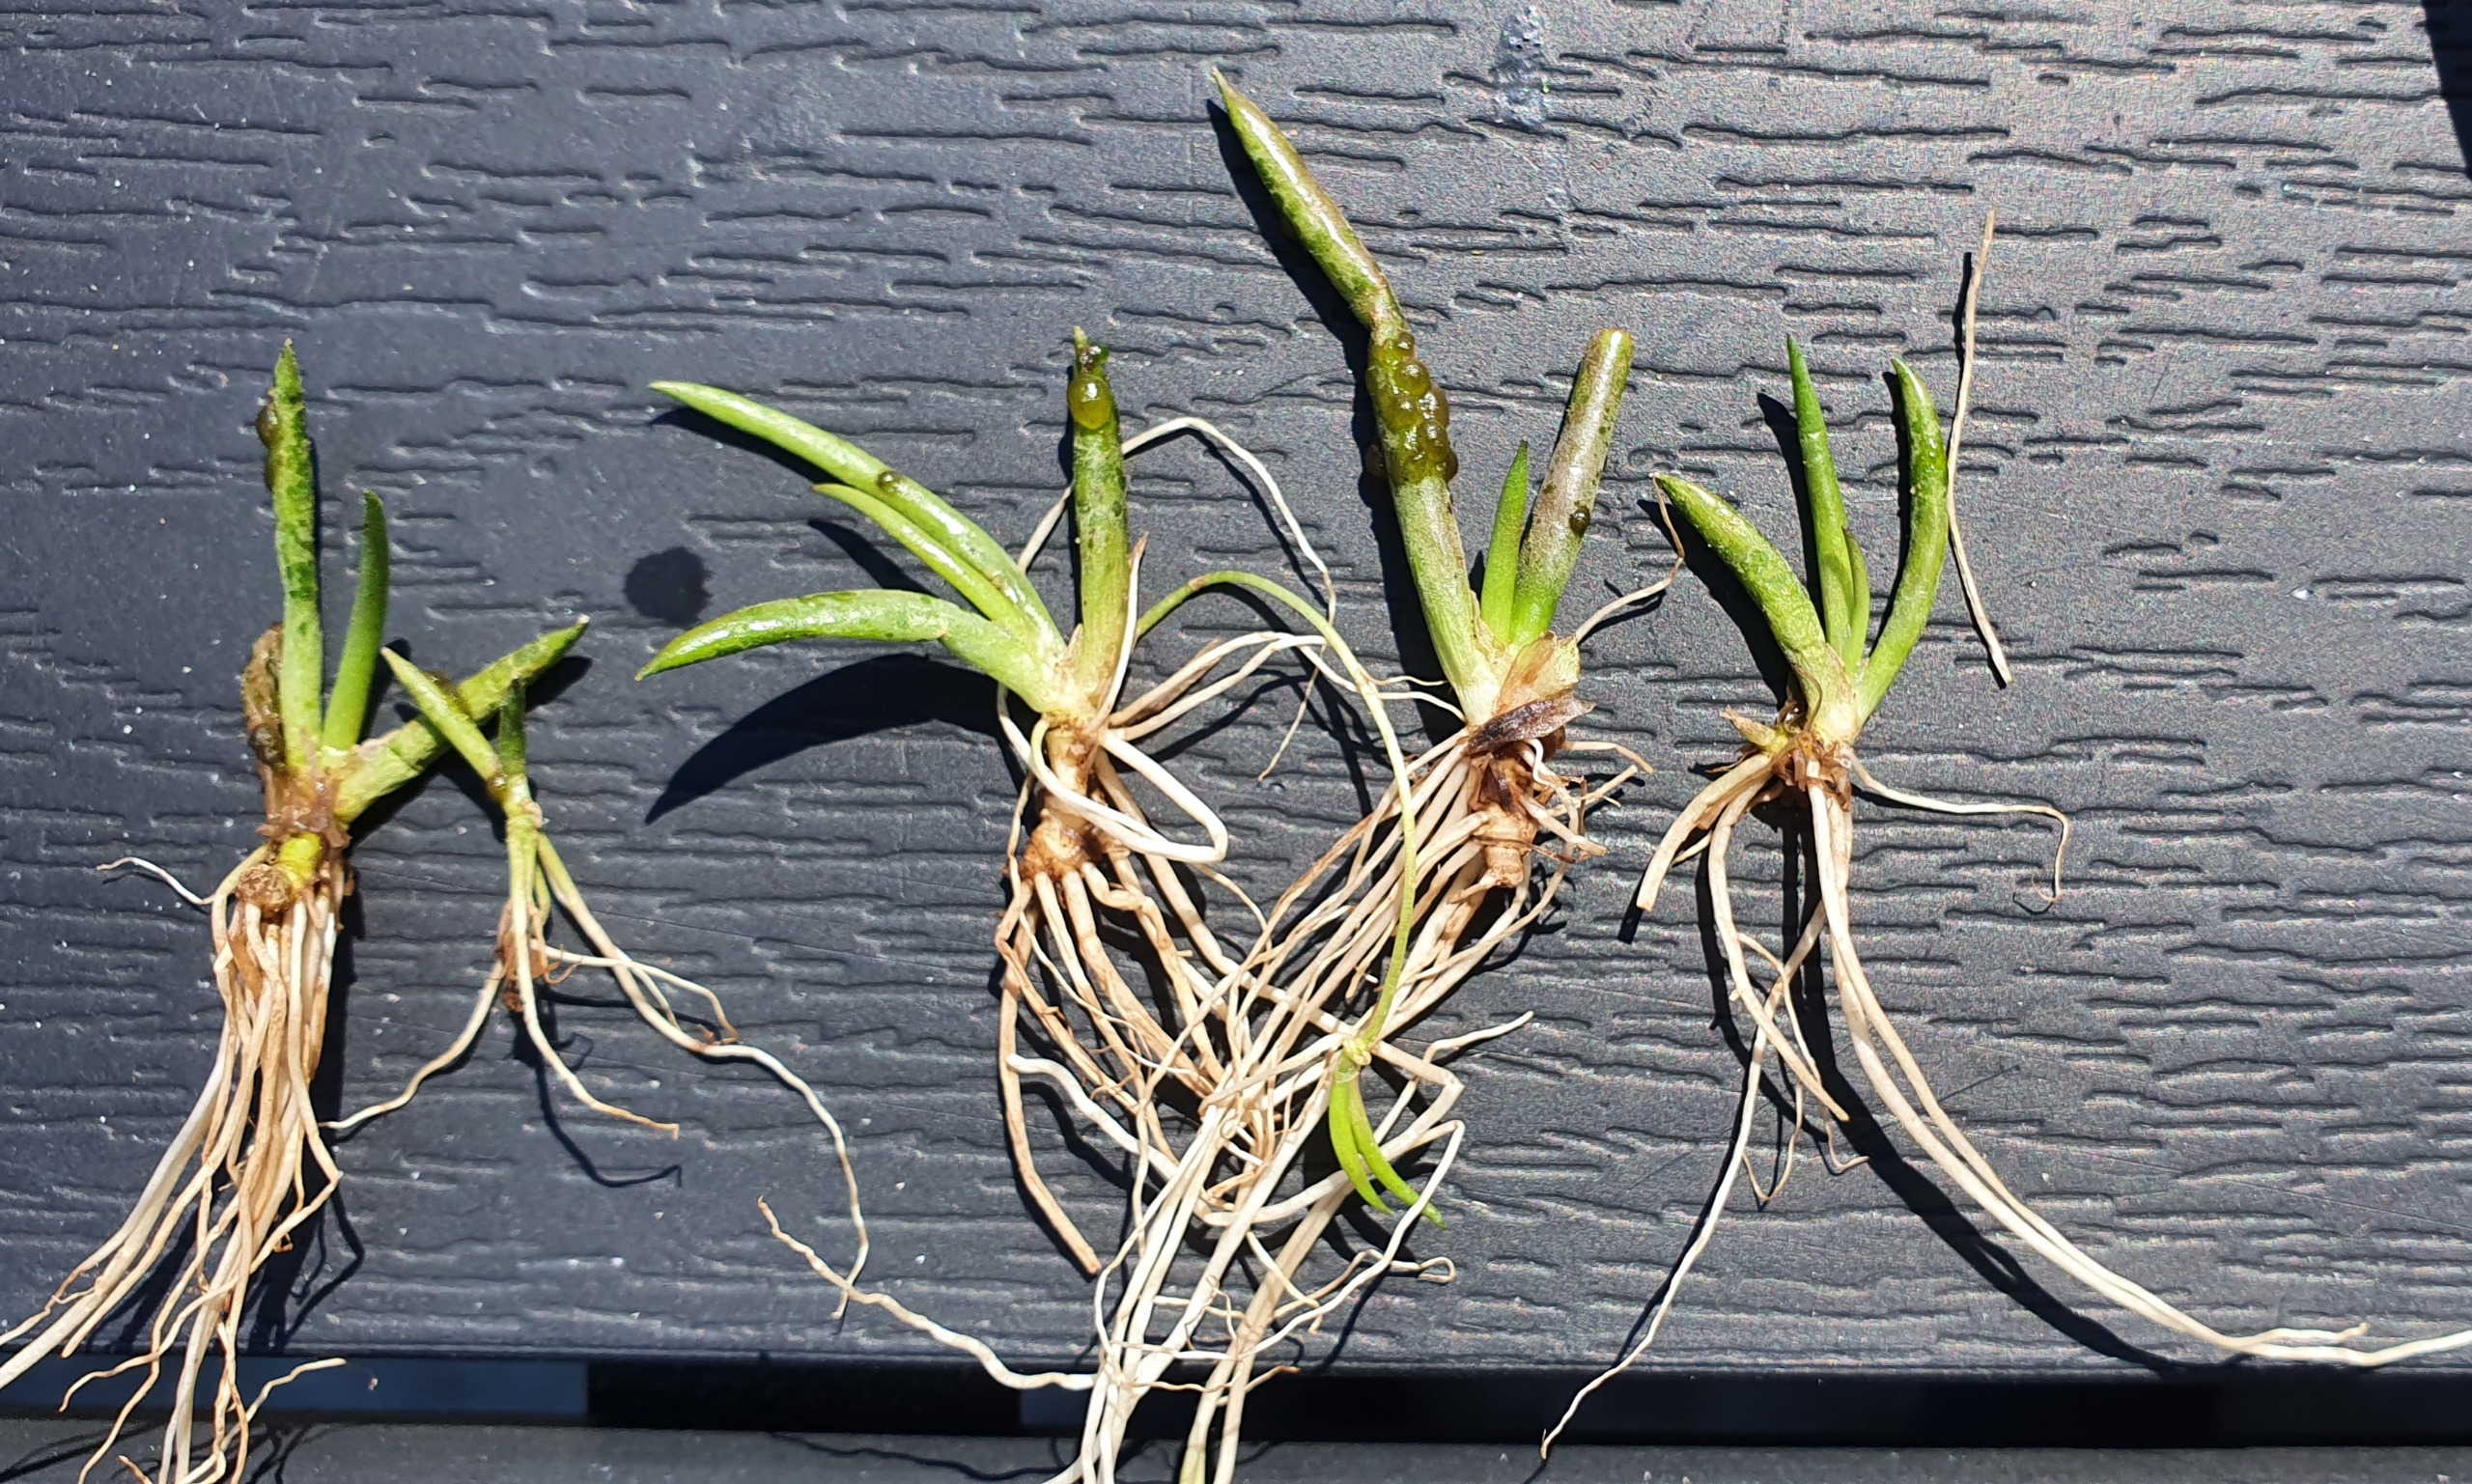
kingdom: Plantae
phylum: Tracheophyta
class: Magnoliopsida
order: Lamiales
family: Plantaginaceae
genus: Littorella
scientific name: Littorella uniflora
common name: Strandbo
